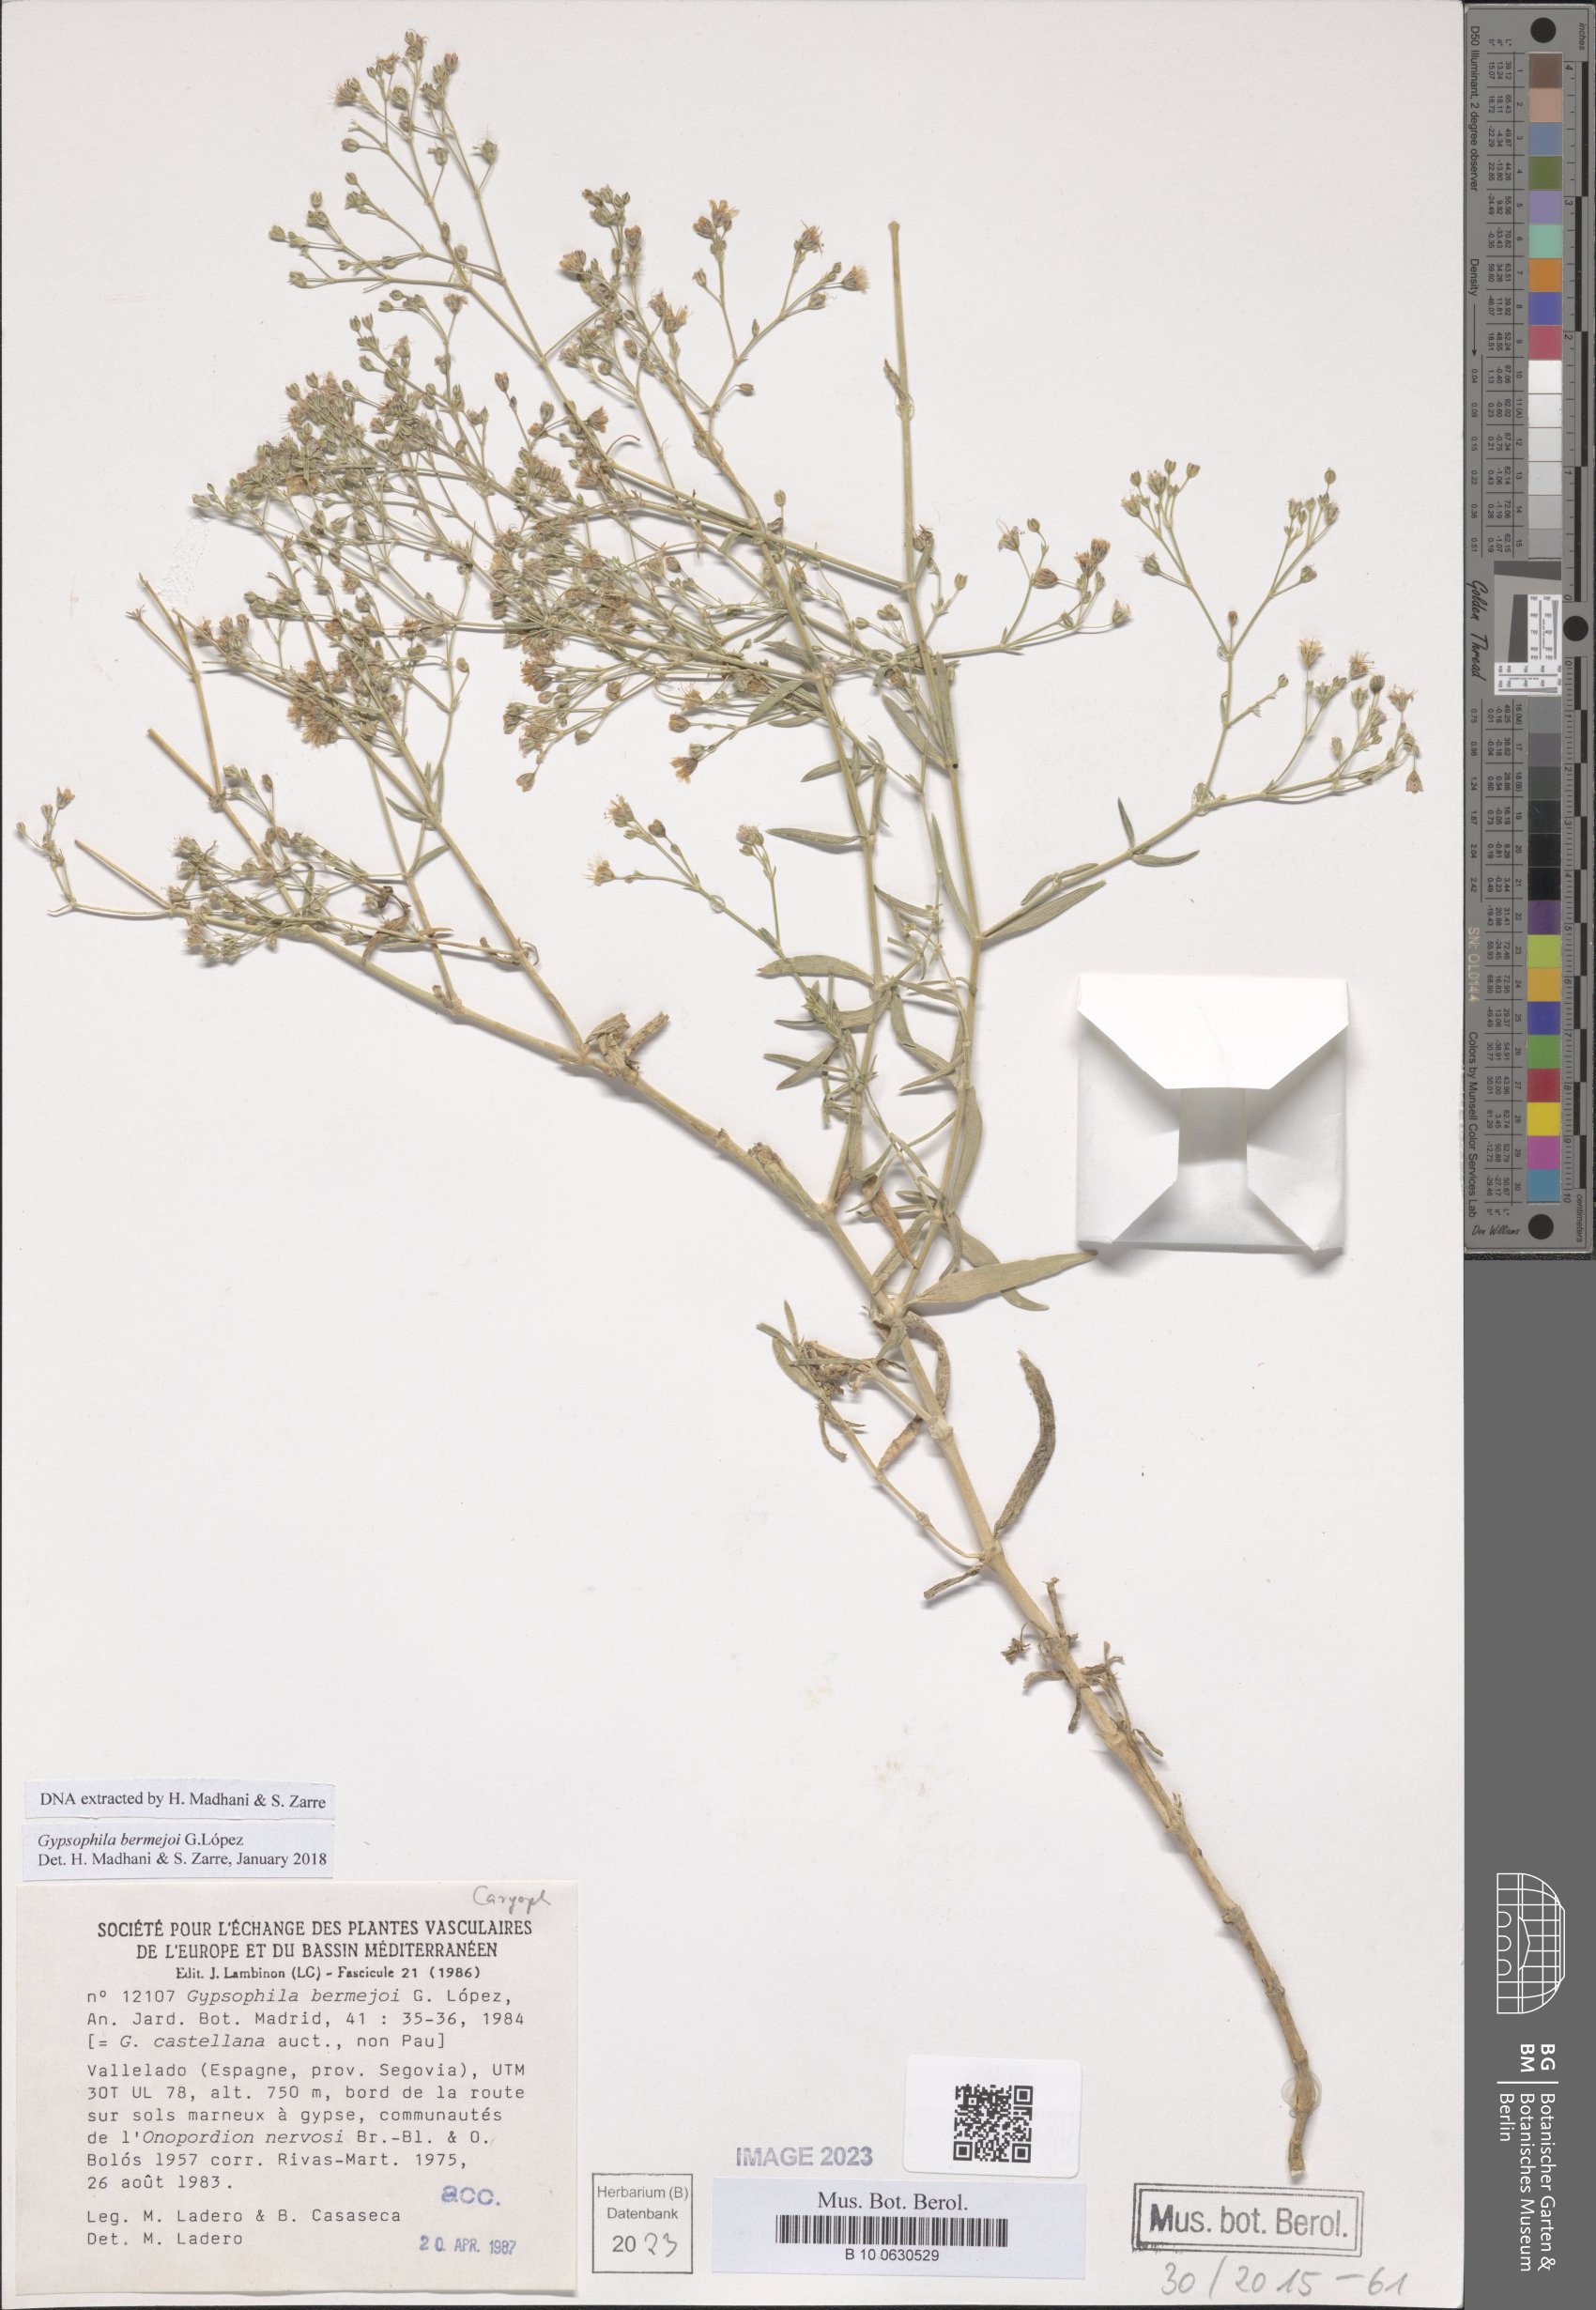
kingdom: Plantae
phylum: Tracheophyta
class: Magnoliopsida
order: Caryophyllales
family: Caryophyllaceae
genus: Gypsophila
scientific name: Gypsophila bermejoi
